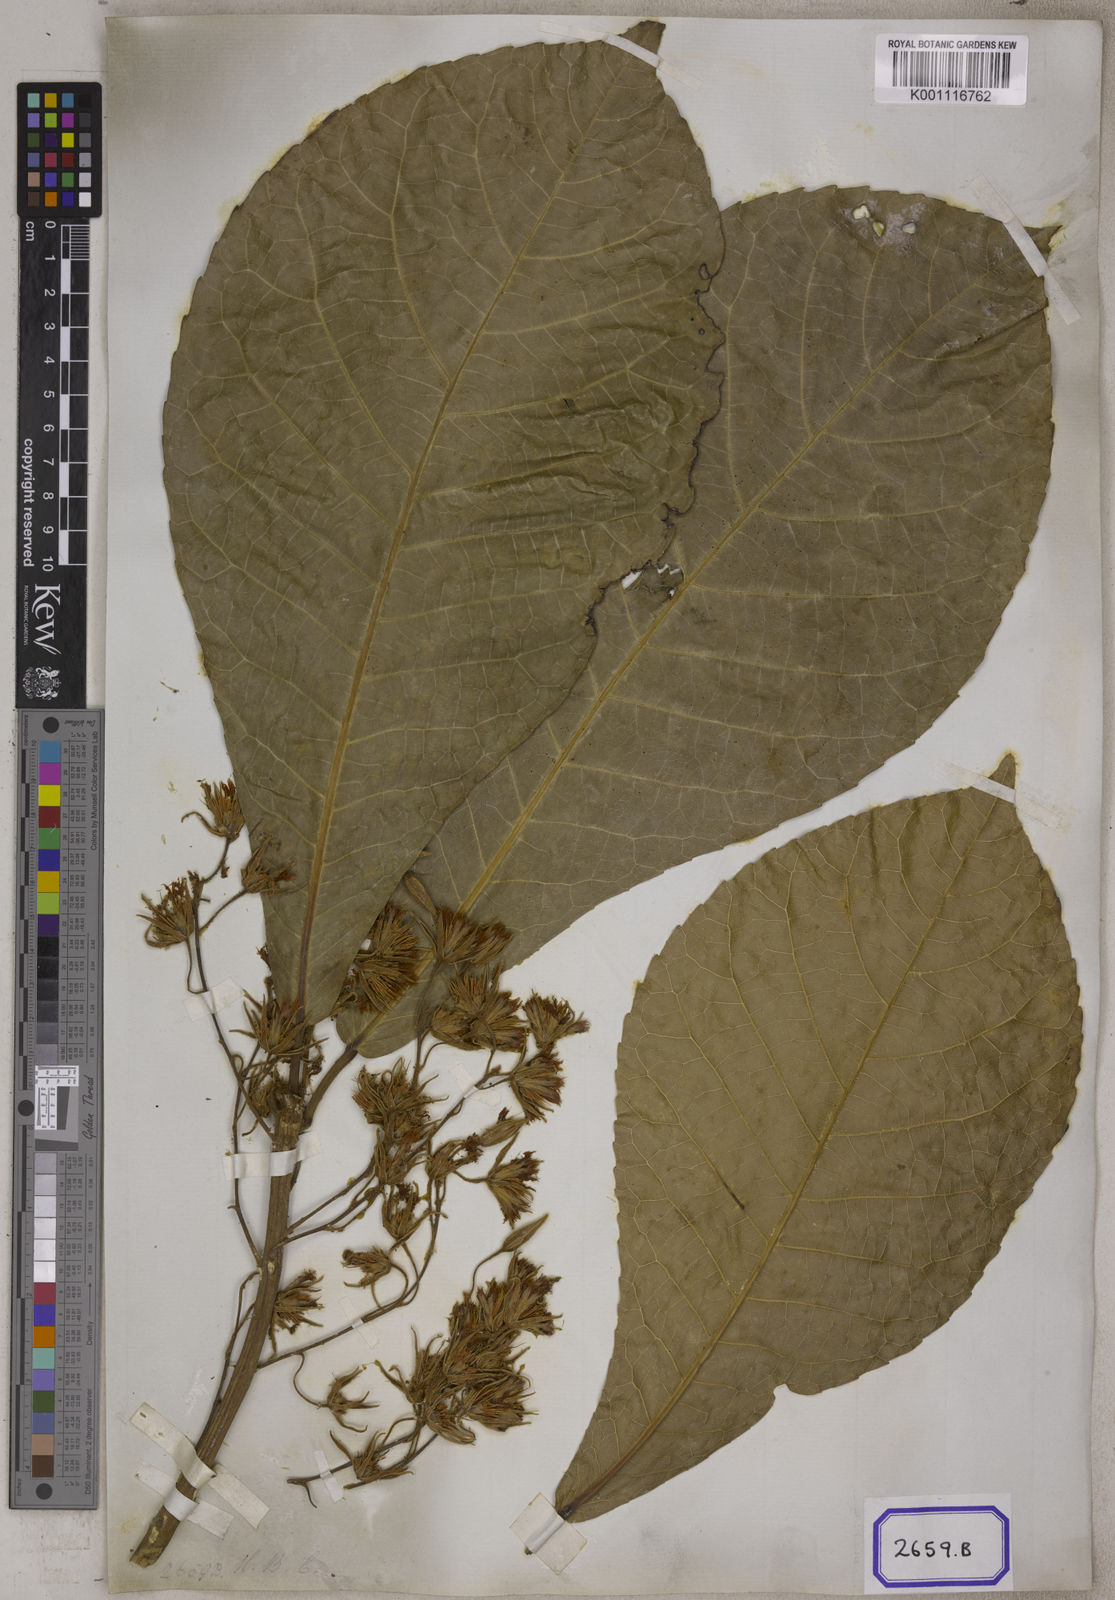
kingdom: Plantae
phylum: Tracheophyta
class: Magnoliopsida
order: Oxalidales
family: Elaeocarpaceae
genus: Elaeocarpus
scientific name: Elaeocarpus
